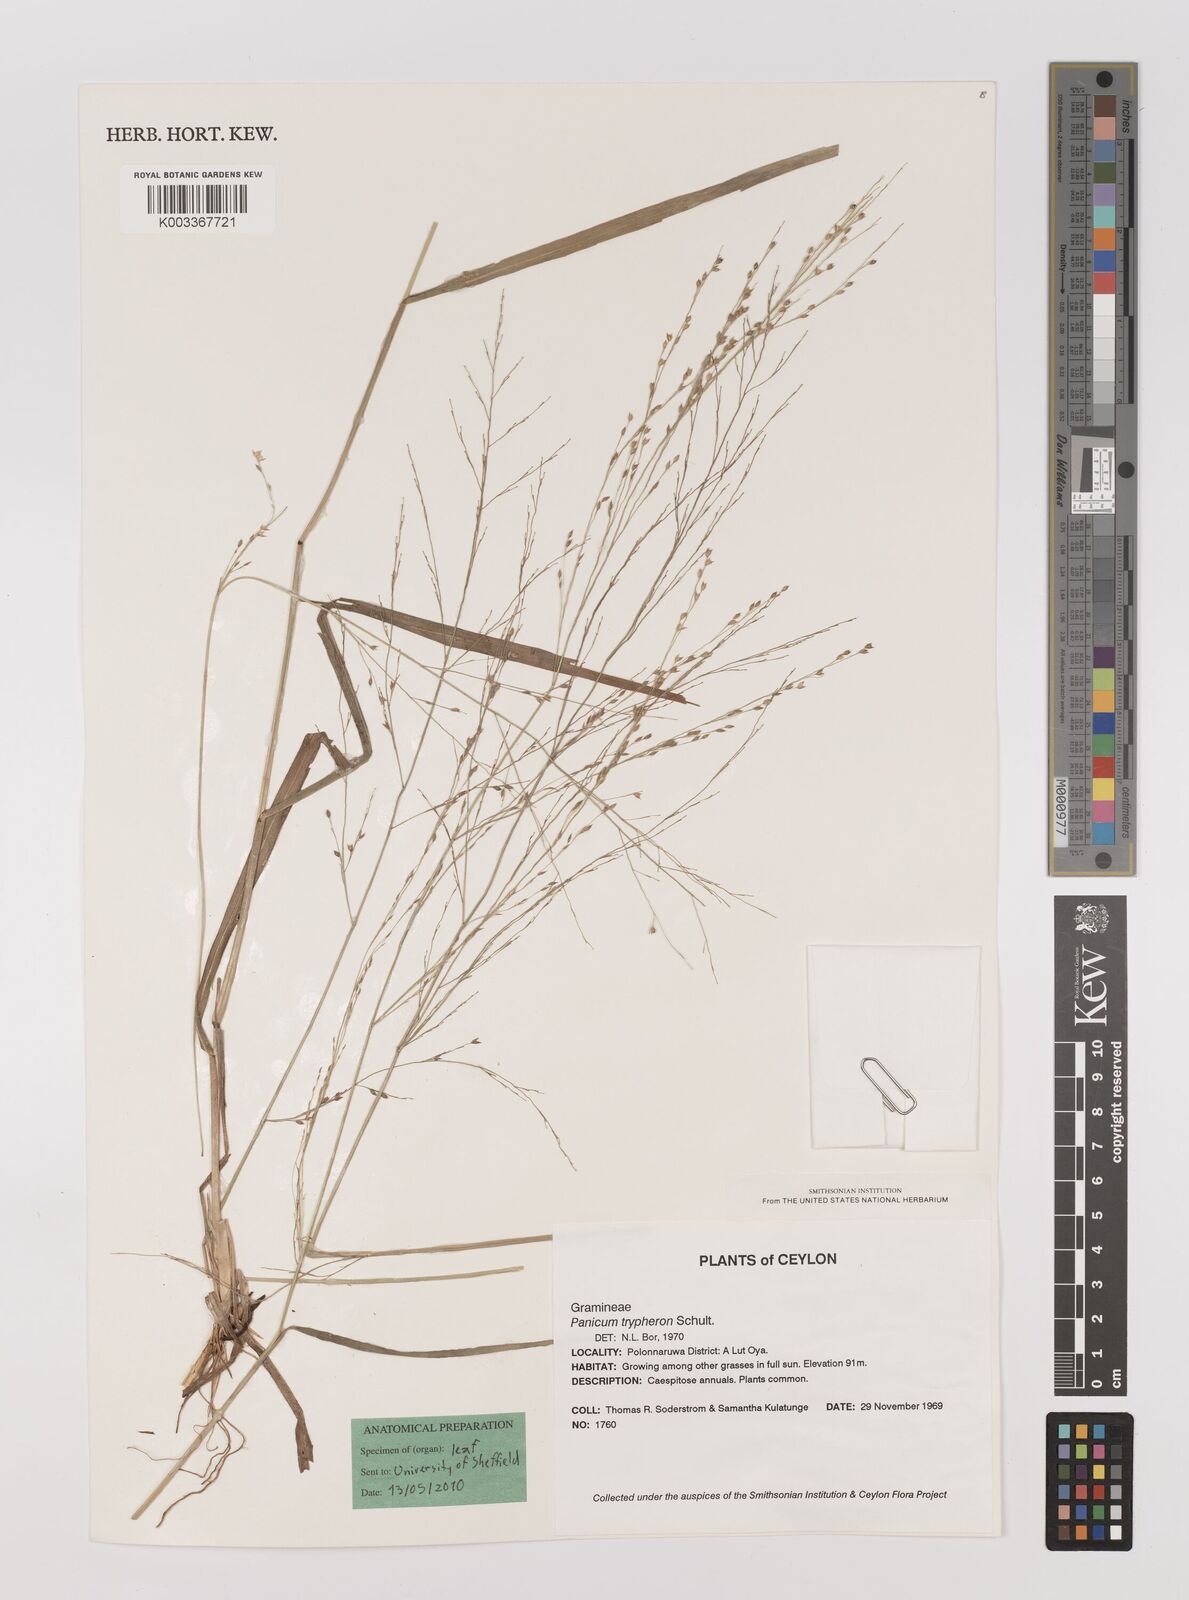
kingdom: Plantae
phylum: Tracheophyta
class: Liliopsida
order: Poales
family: Poaceae
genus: Panicum
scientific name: Panicum curviflorum
